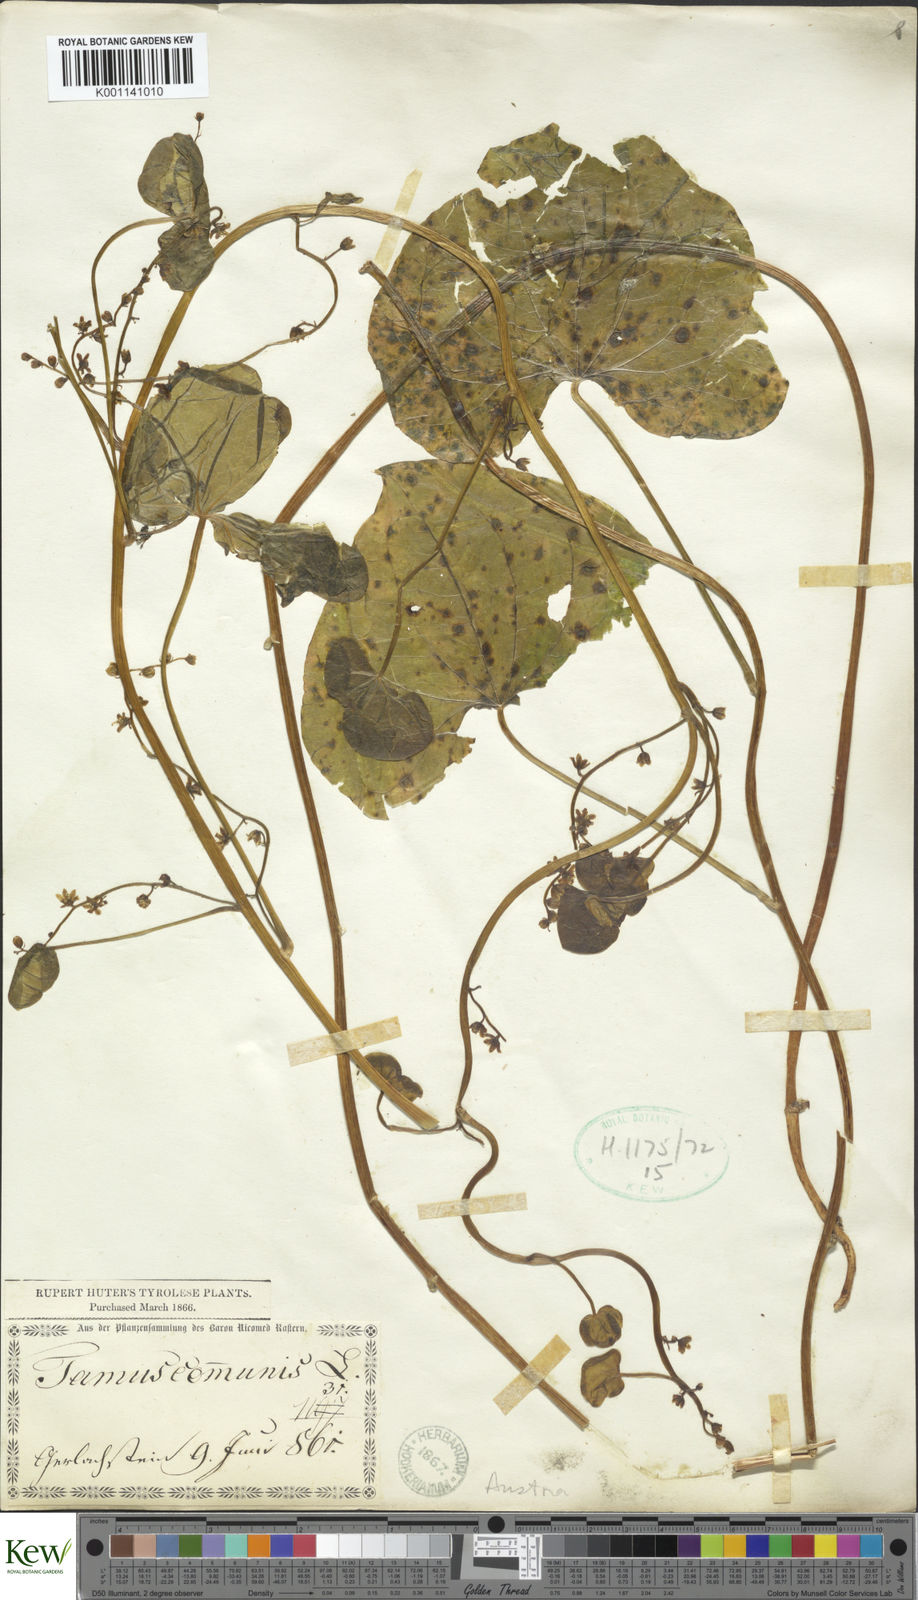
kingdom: Plantae
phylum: Tracheophyta
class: Liliopsida
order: Dioscoreales
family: Dioscoreaceae
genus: Dioscorea
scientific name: Dioscorea communis
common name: Black-bindweed
